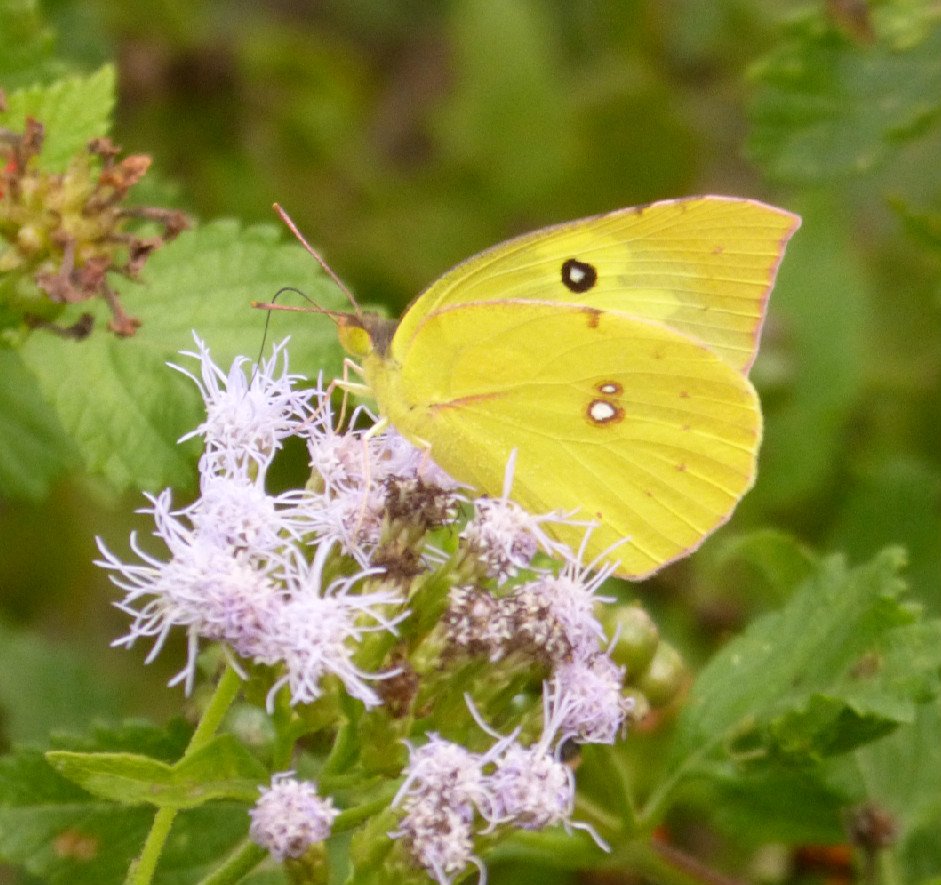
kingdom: Animalia
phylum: Arthropoda
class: Insecta
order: Lepidoptera
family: Pieridae
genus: Zerene
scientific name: Zerene cesonia
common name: Southern Dogface
